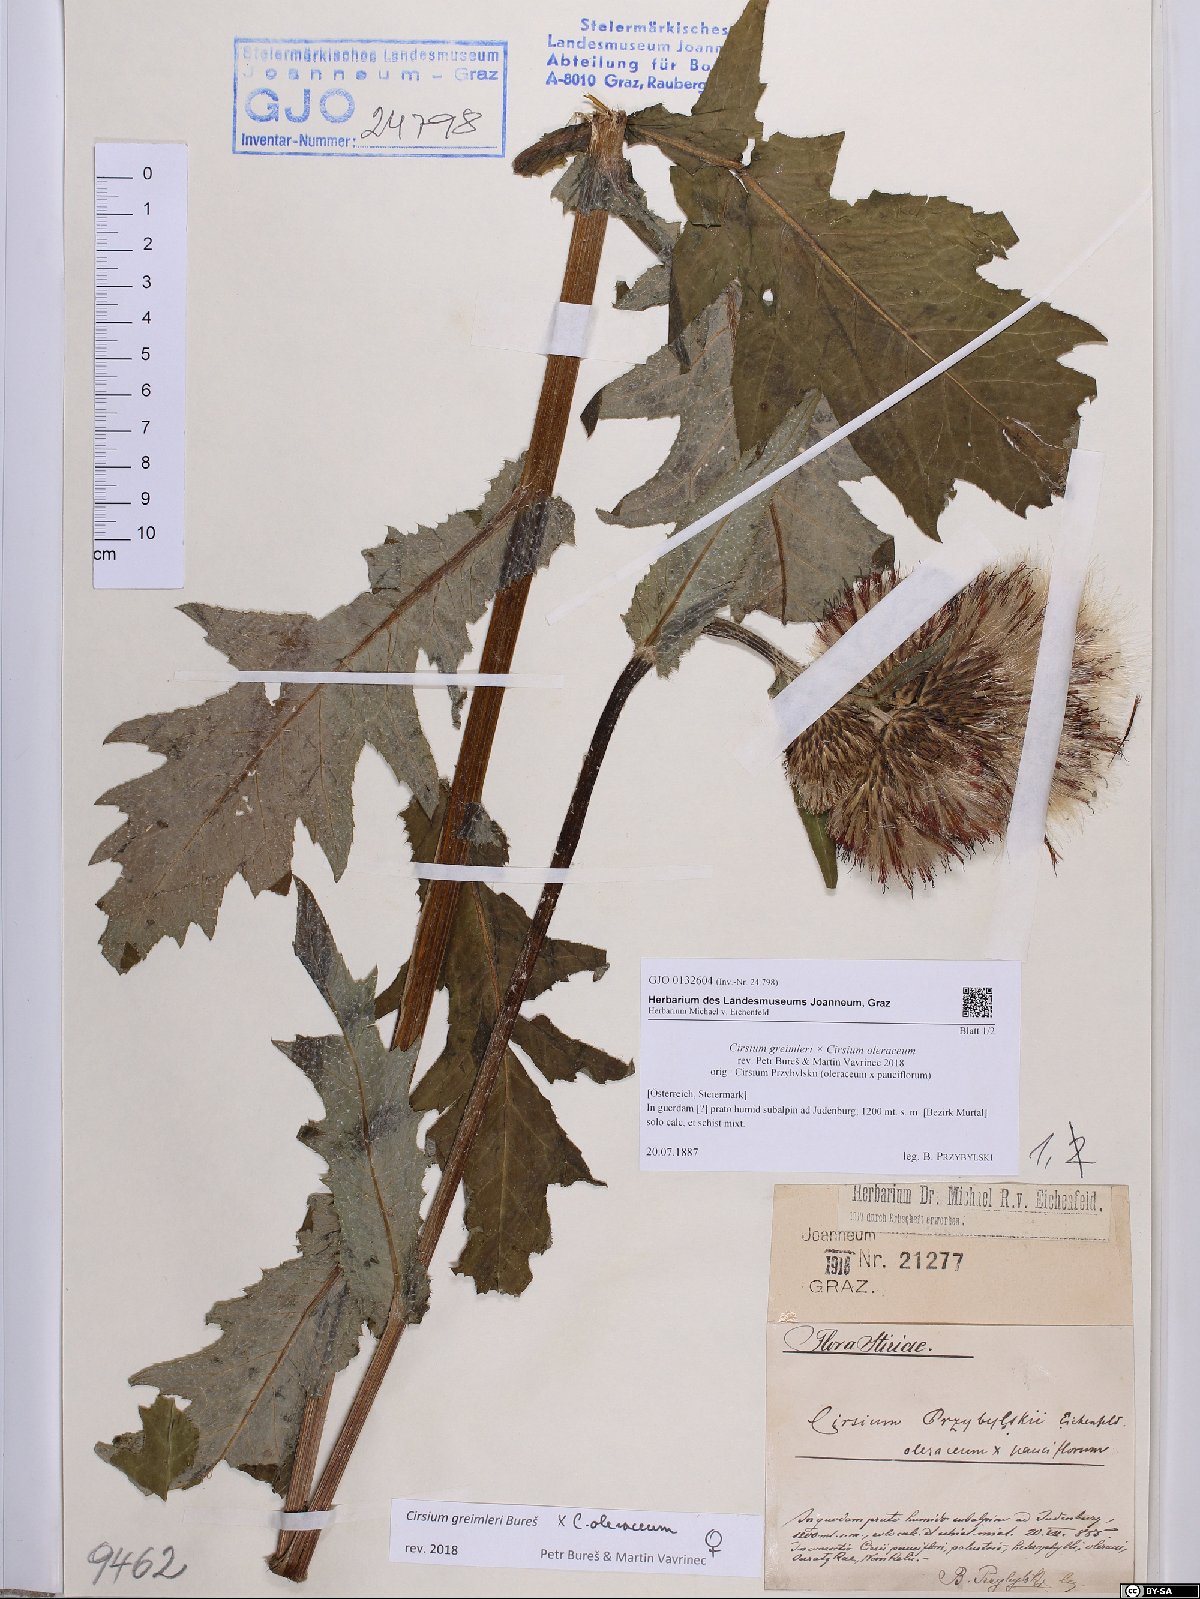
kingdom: Plantae
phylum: Tracheophyta
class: Magnoliopsida
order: Asterales
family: Asteraceae
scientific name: Asteraceae
